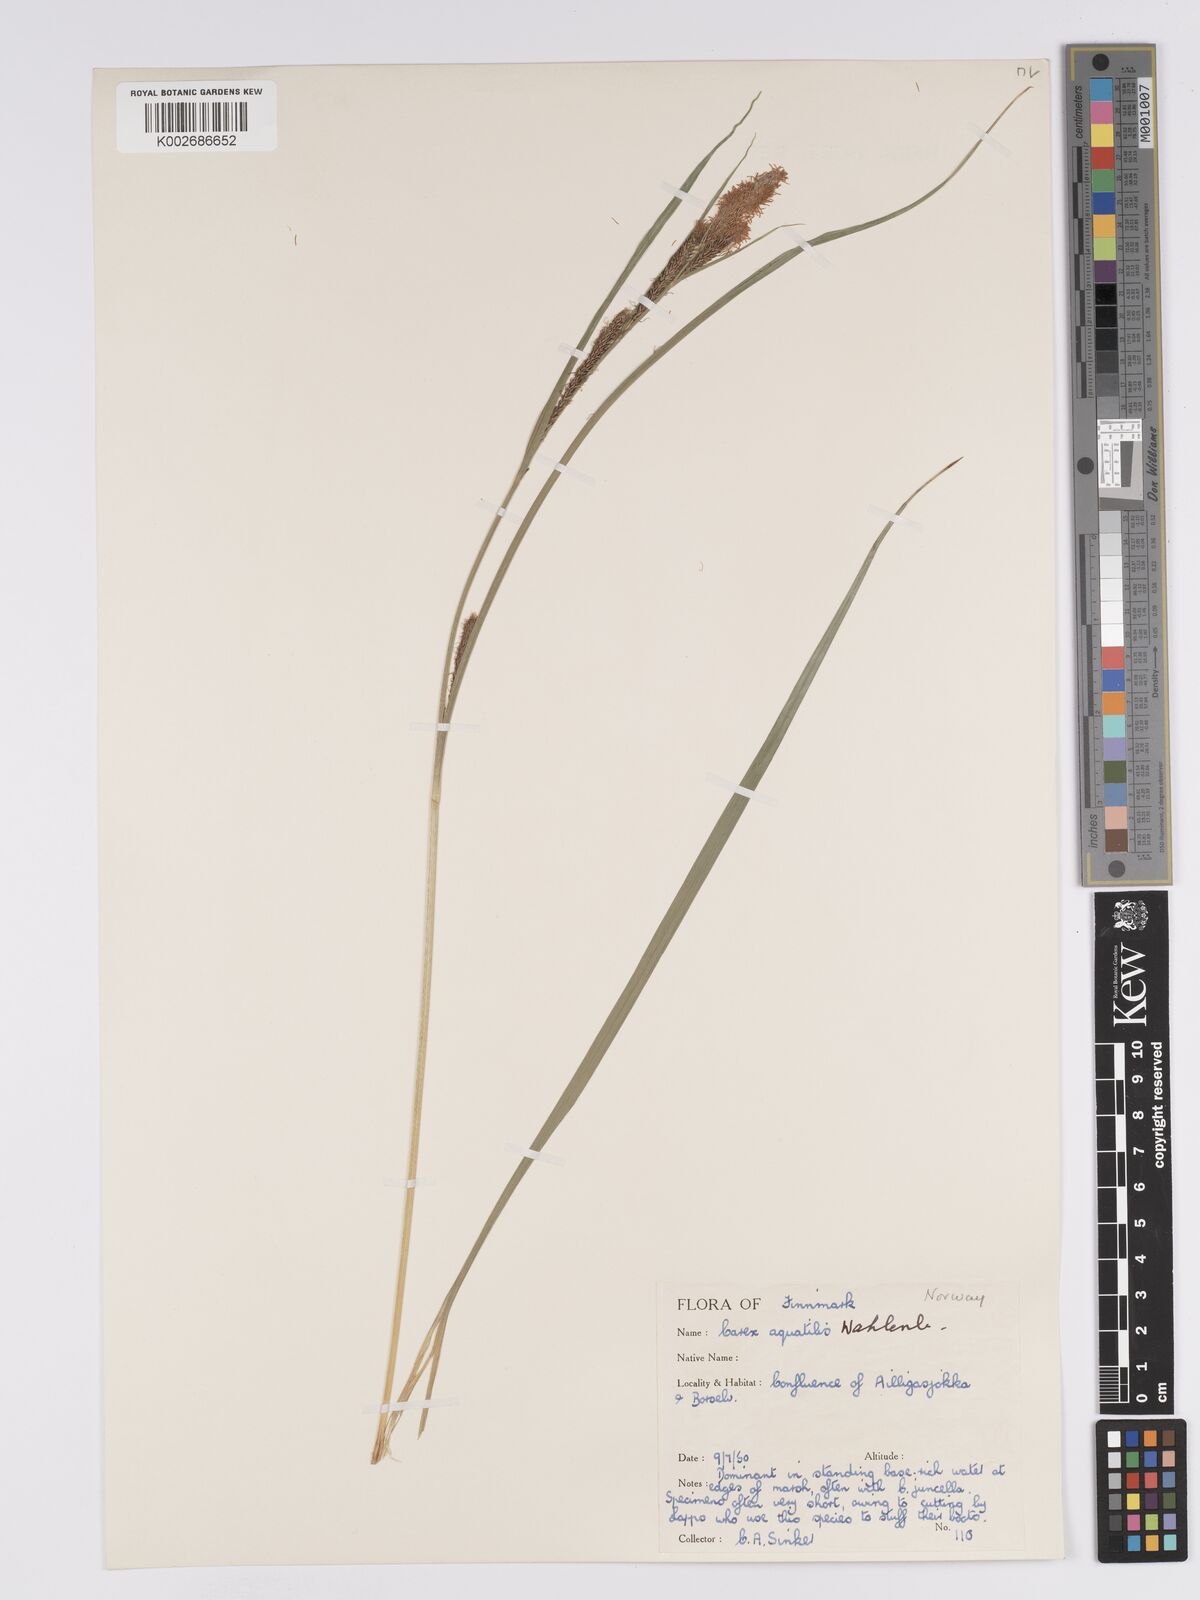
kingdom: Plantae
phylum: Tracheophyta
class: Liliopsida
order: Poales
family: Cyperaceae
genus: Carex
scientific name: Carex aquatilis
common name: Water sedge
